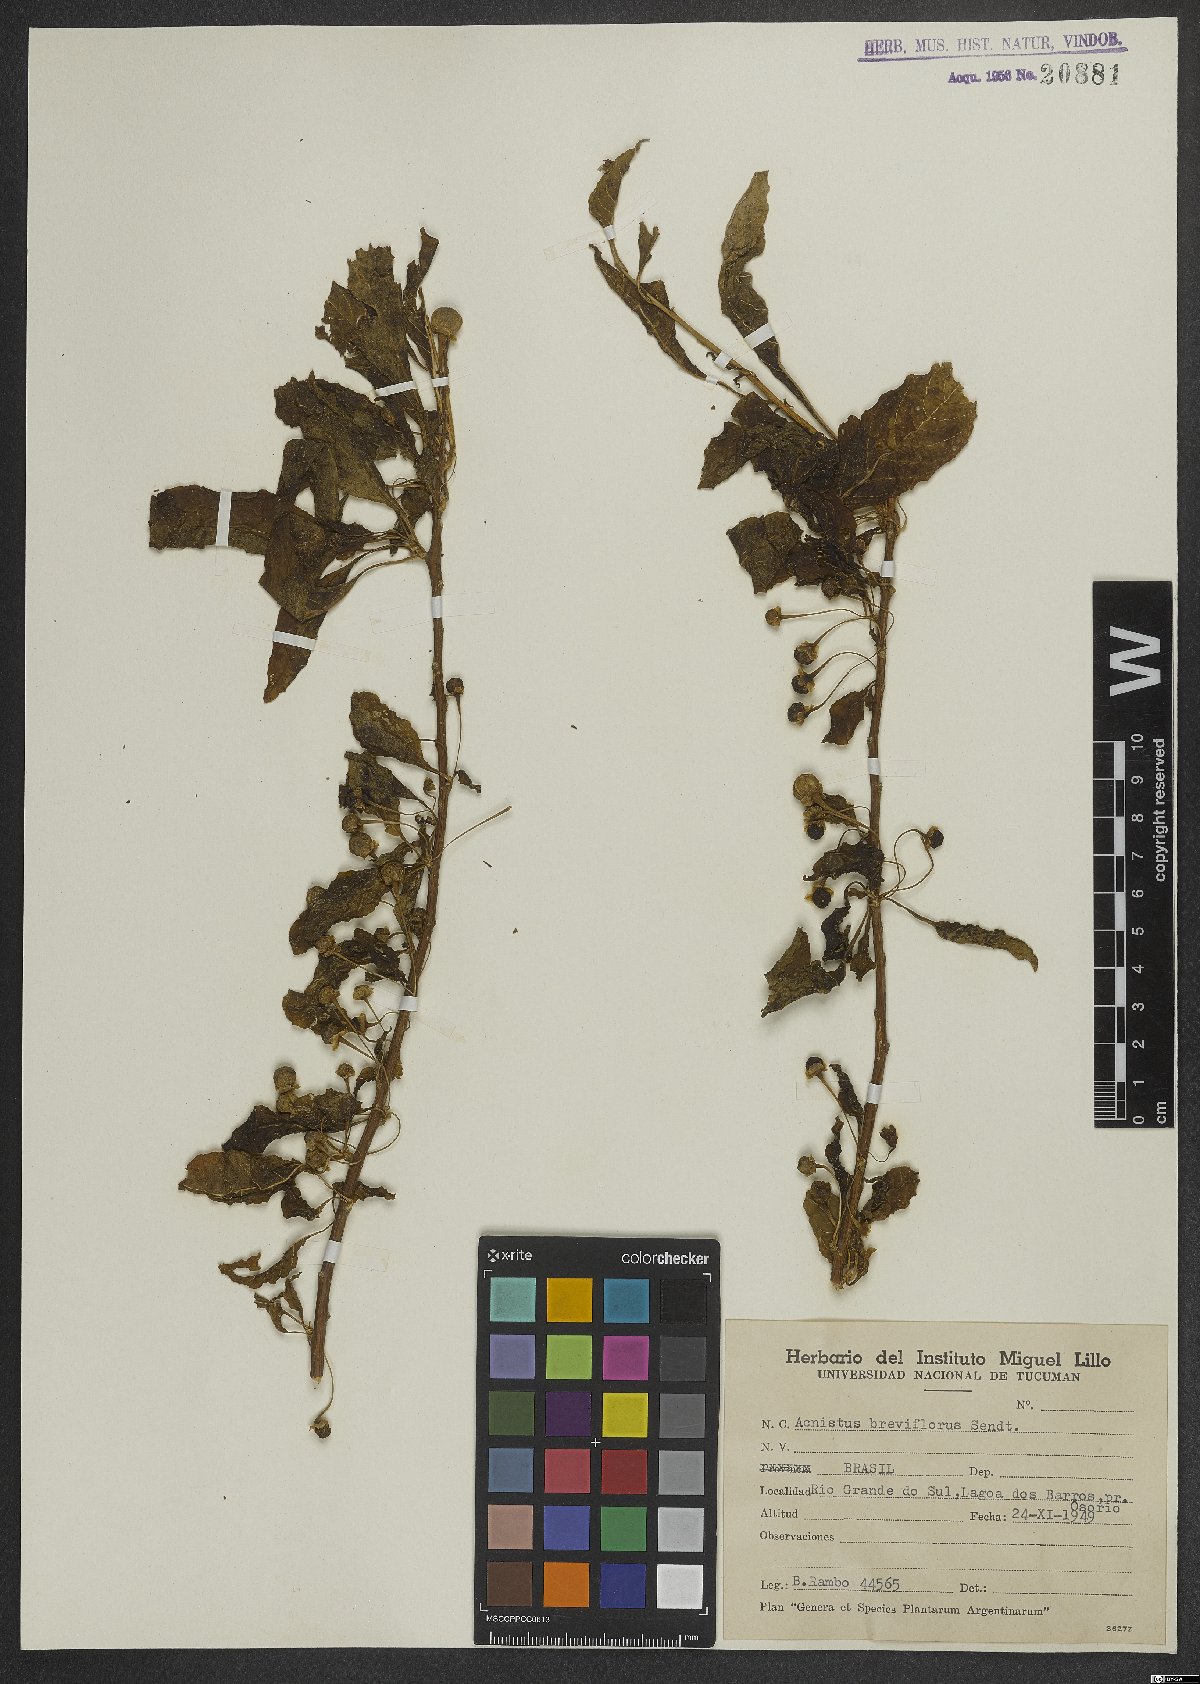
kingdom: Plantae
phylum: Tracheophyta
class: Magnoliopsida
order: Solanales
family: Solanaceae
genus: Vassobia
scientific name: Vassobia breviflora
